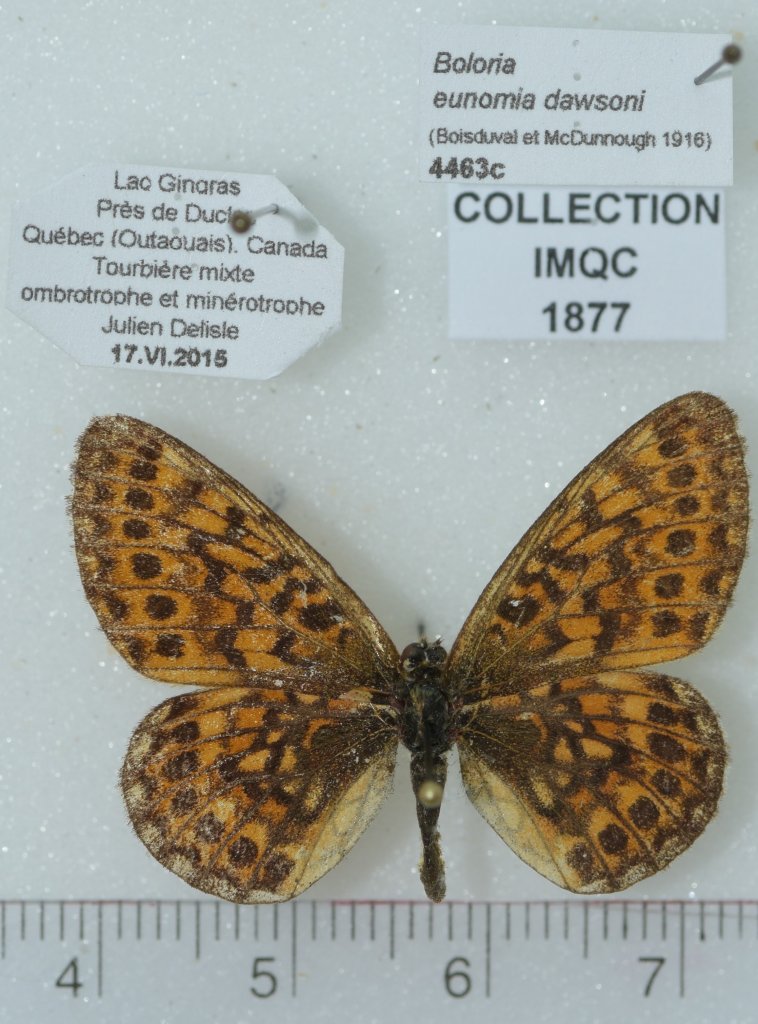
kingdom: Animalia
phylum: Arthropoda
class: Insecta
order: Lepidoptera
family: Nymphalidae
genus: Boloria
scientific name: Boloria eunomia
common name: Bog Fritillary
